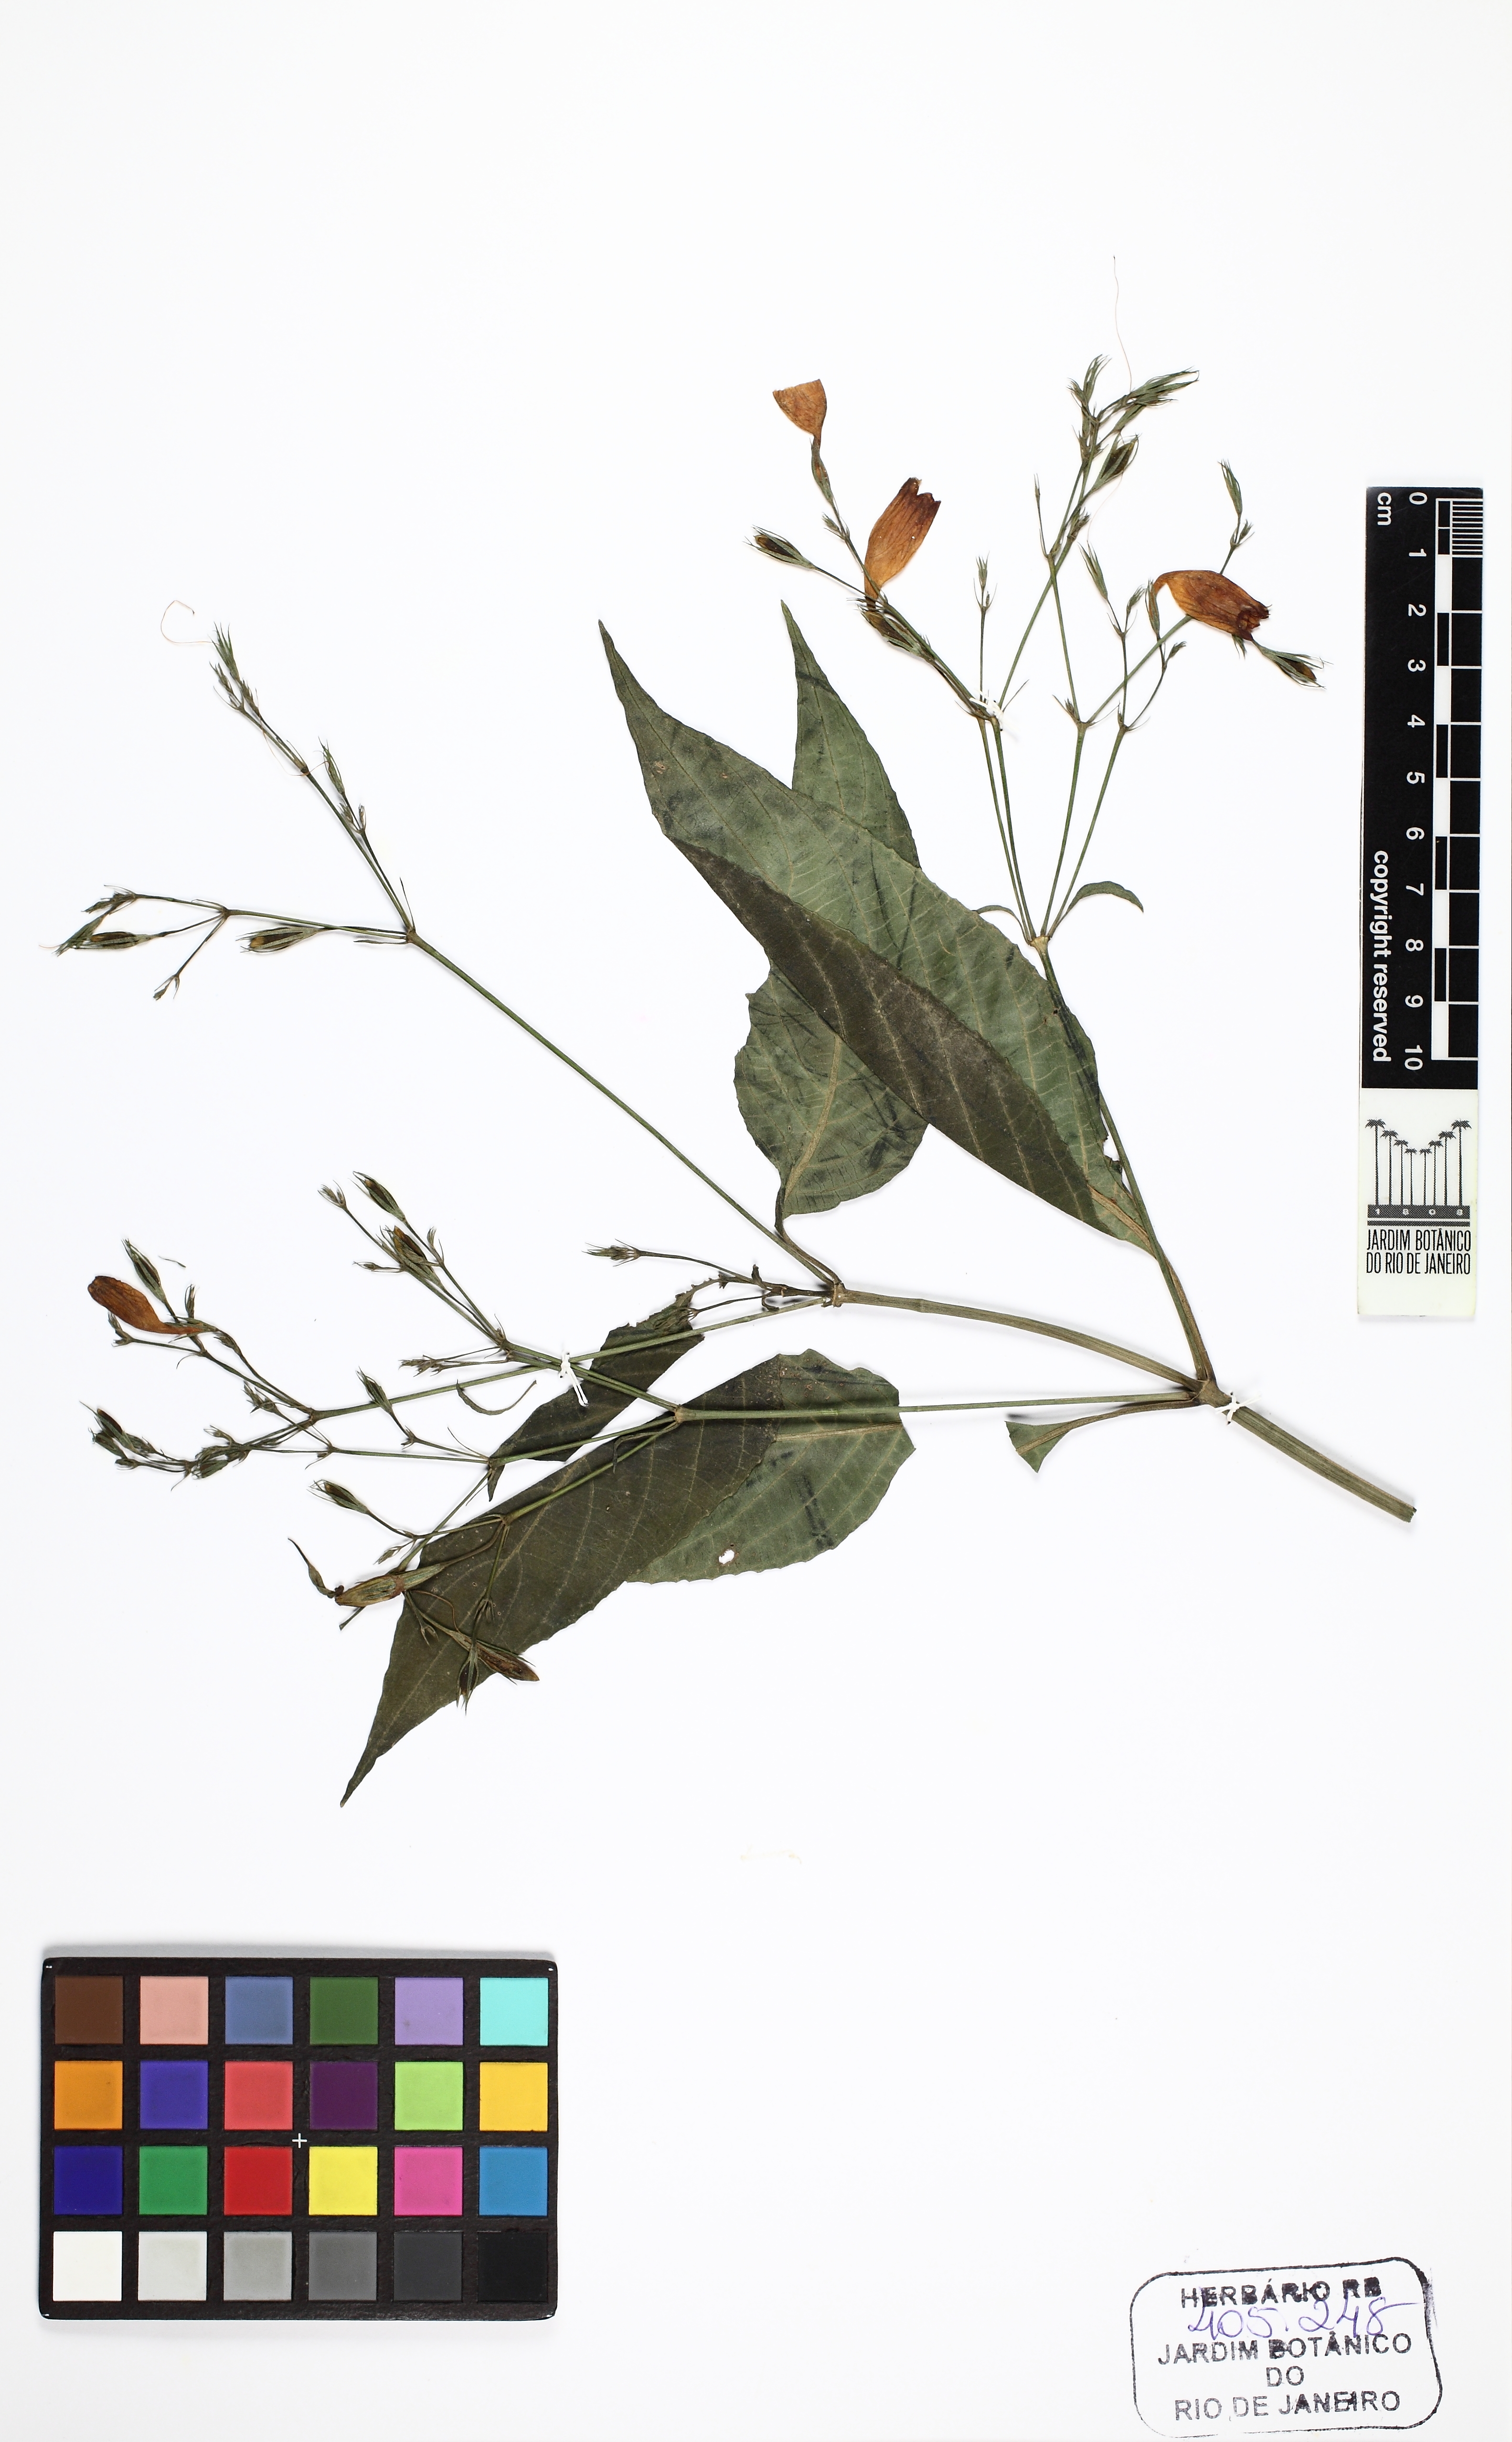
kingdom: Plantae
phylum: Tracheophyta
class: Magnoliopsida
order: Lamiales
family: Acanthaceae
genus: Ruellia
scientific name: Ruellia brevifolia
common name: Tropical wild petunia
